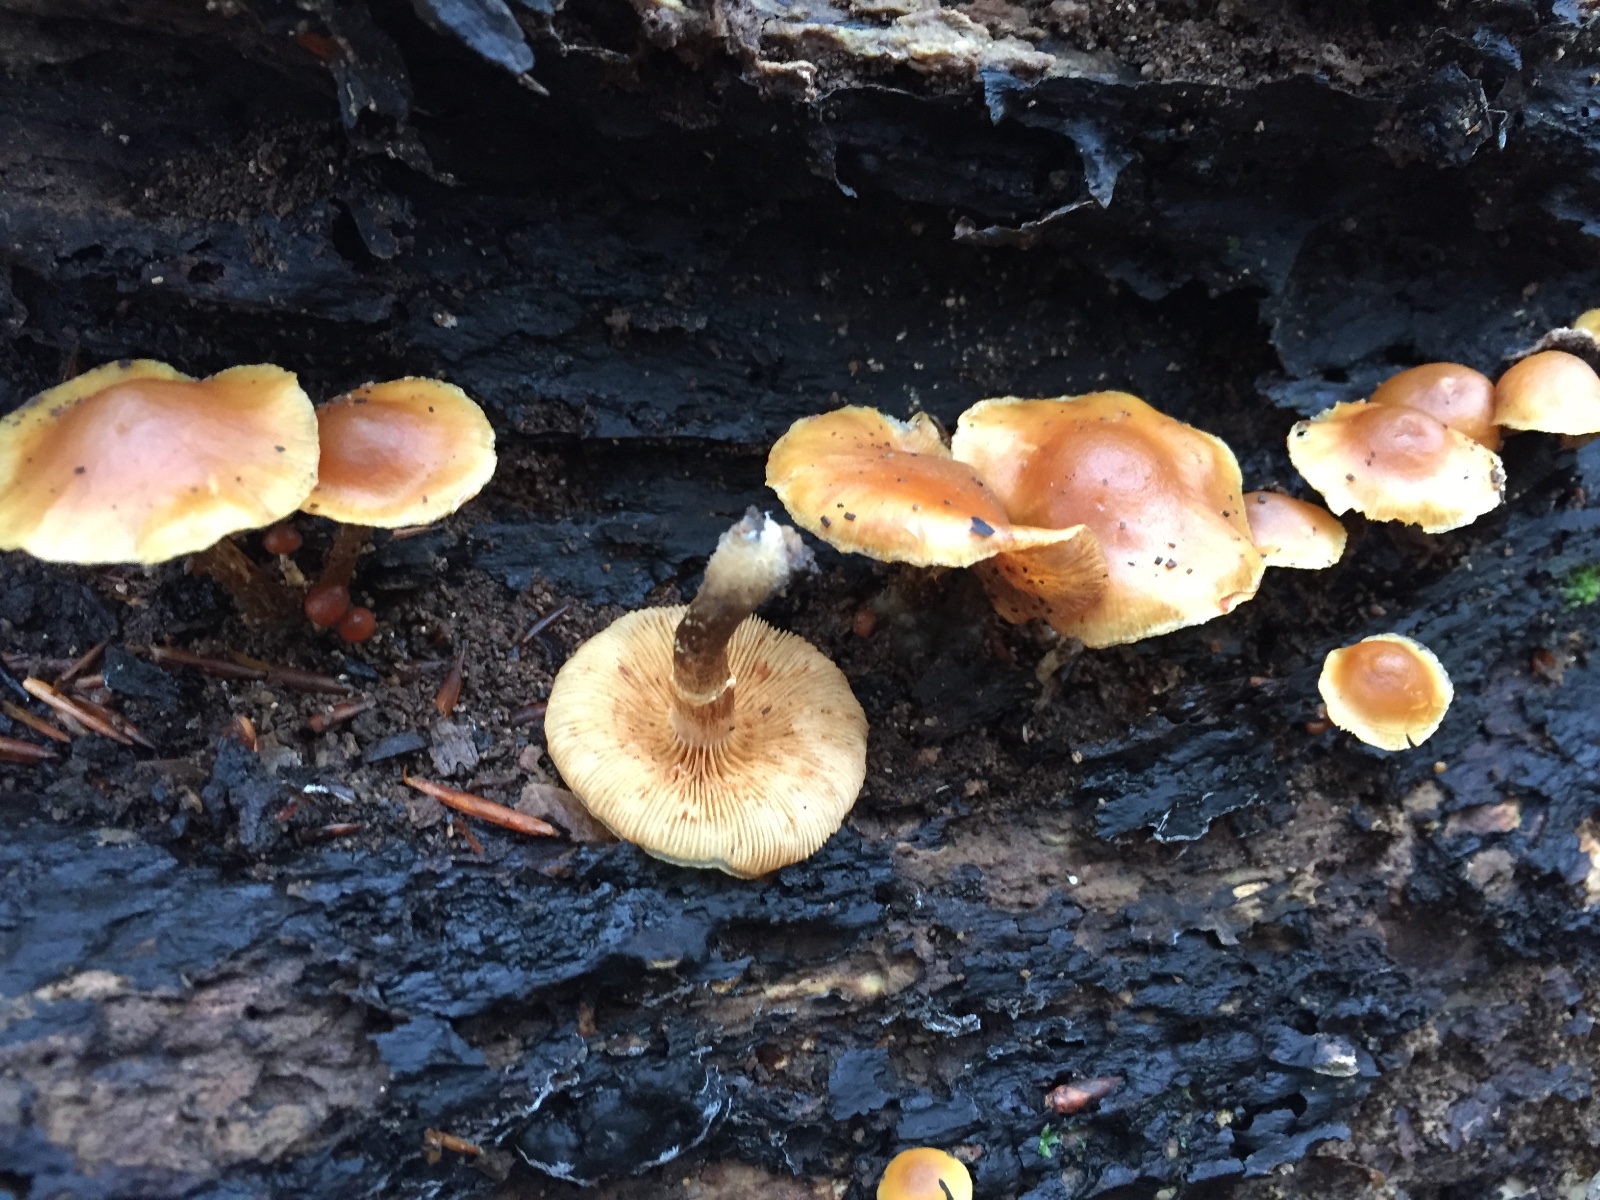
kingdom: Fungi
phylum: Basidiomycota
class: Agaricomycetes
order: Agaricales
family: Hymenogastraceae
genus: Galerina
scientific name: Galerina marginata
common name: randbæltet hjelmhat
